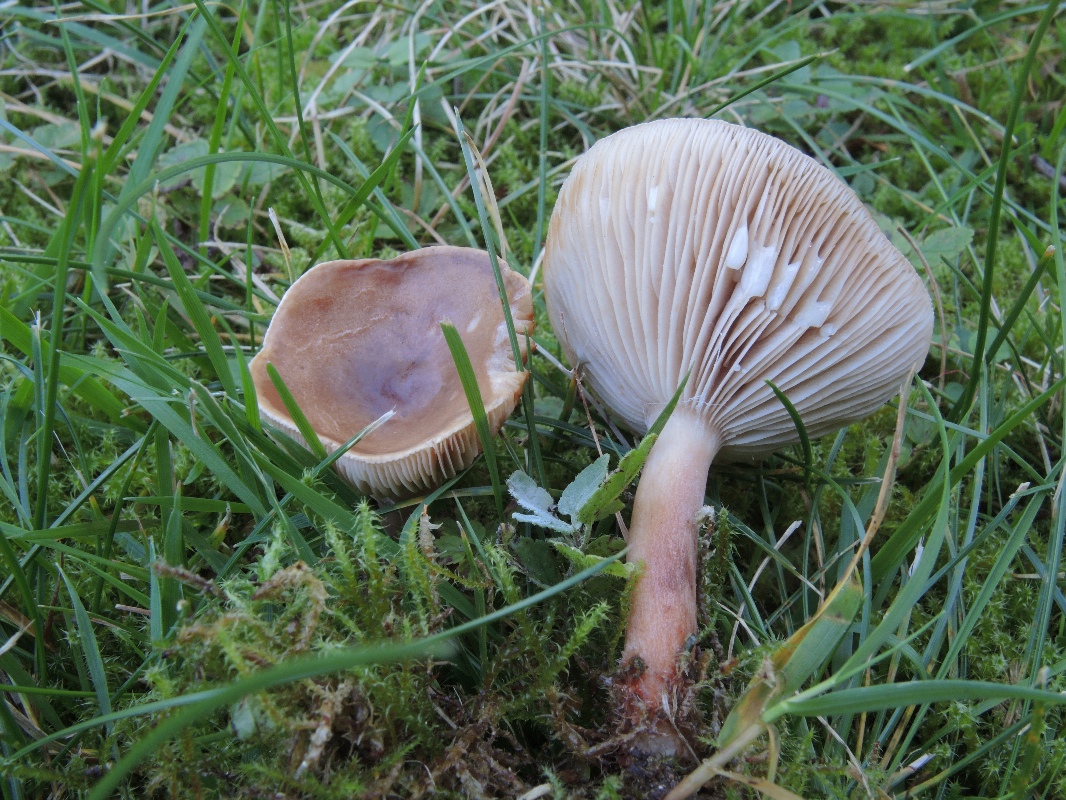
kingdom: Fungi
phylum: Basidiomycota
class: Agaricomycetes
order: Russulales
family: Russulaceae
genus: Lactarius
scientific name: Lactarius subdulcis
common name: sødlig mælkehat
